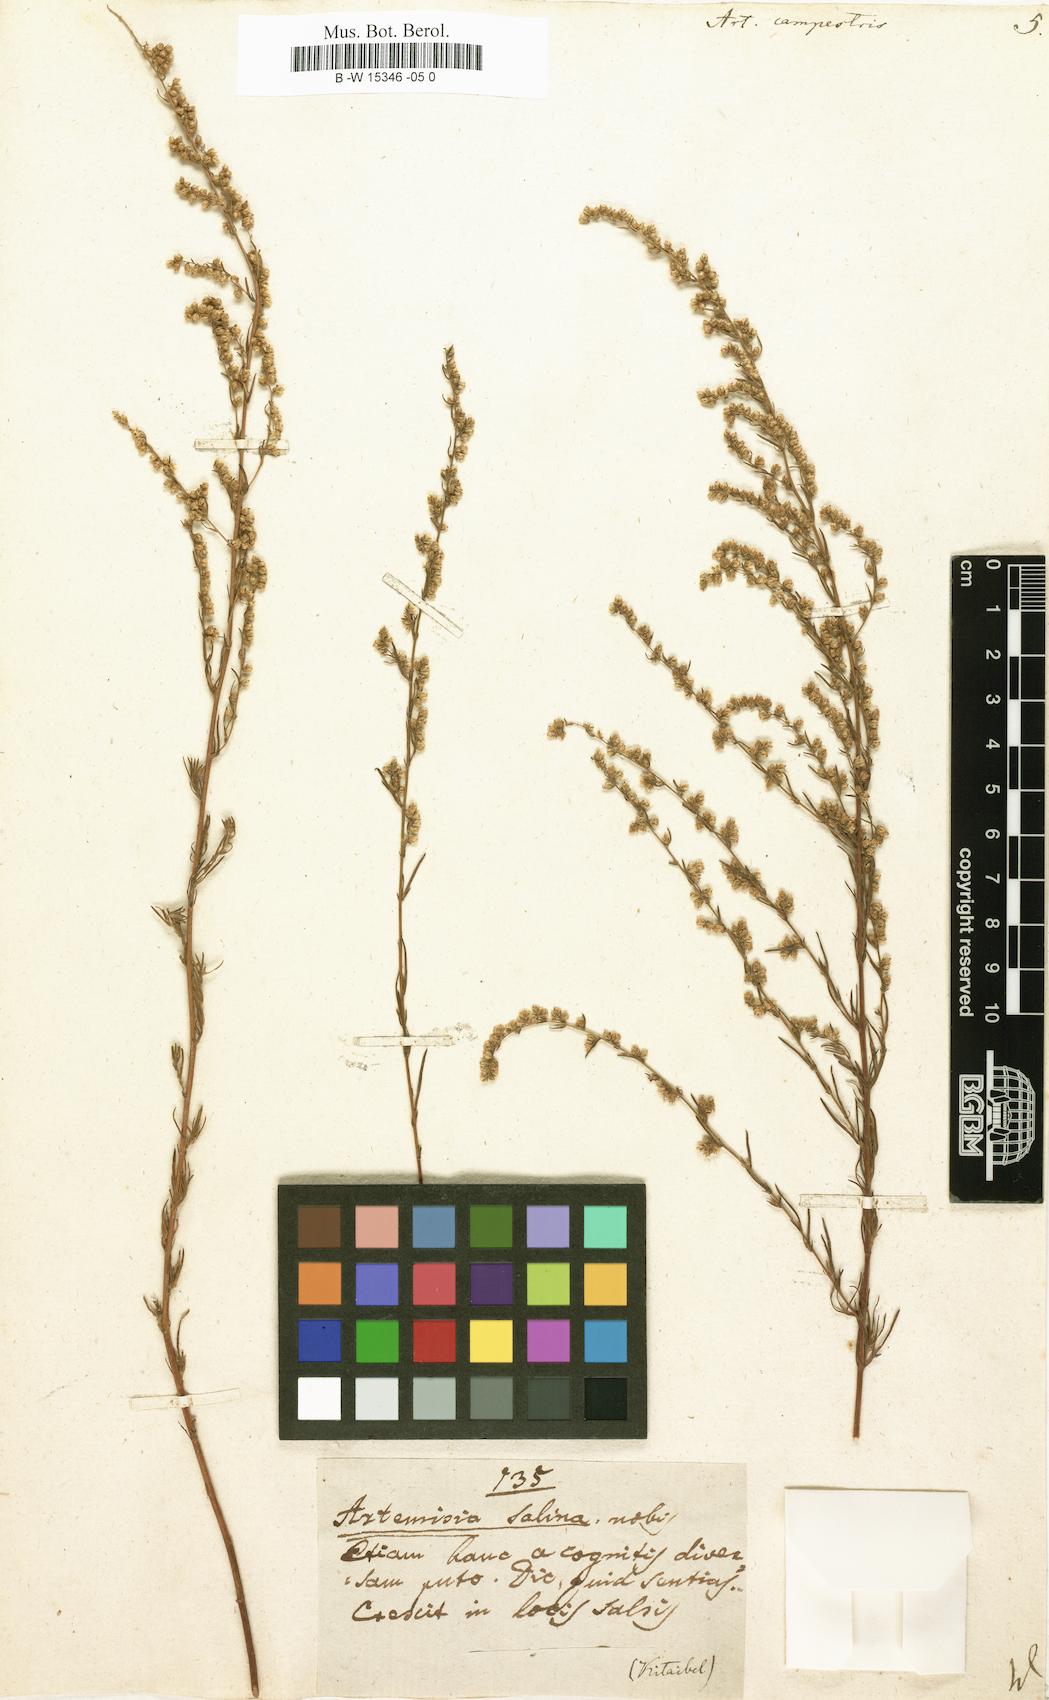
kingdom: Plantae
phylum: Tracheophyta
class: Magnoliopsida
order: Asterales
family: Asteraceae
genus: Artemisia
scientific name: Artemisia campestris
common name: Field wormwood
